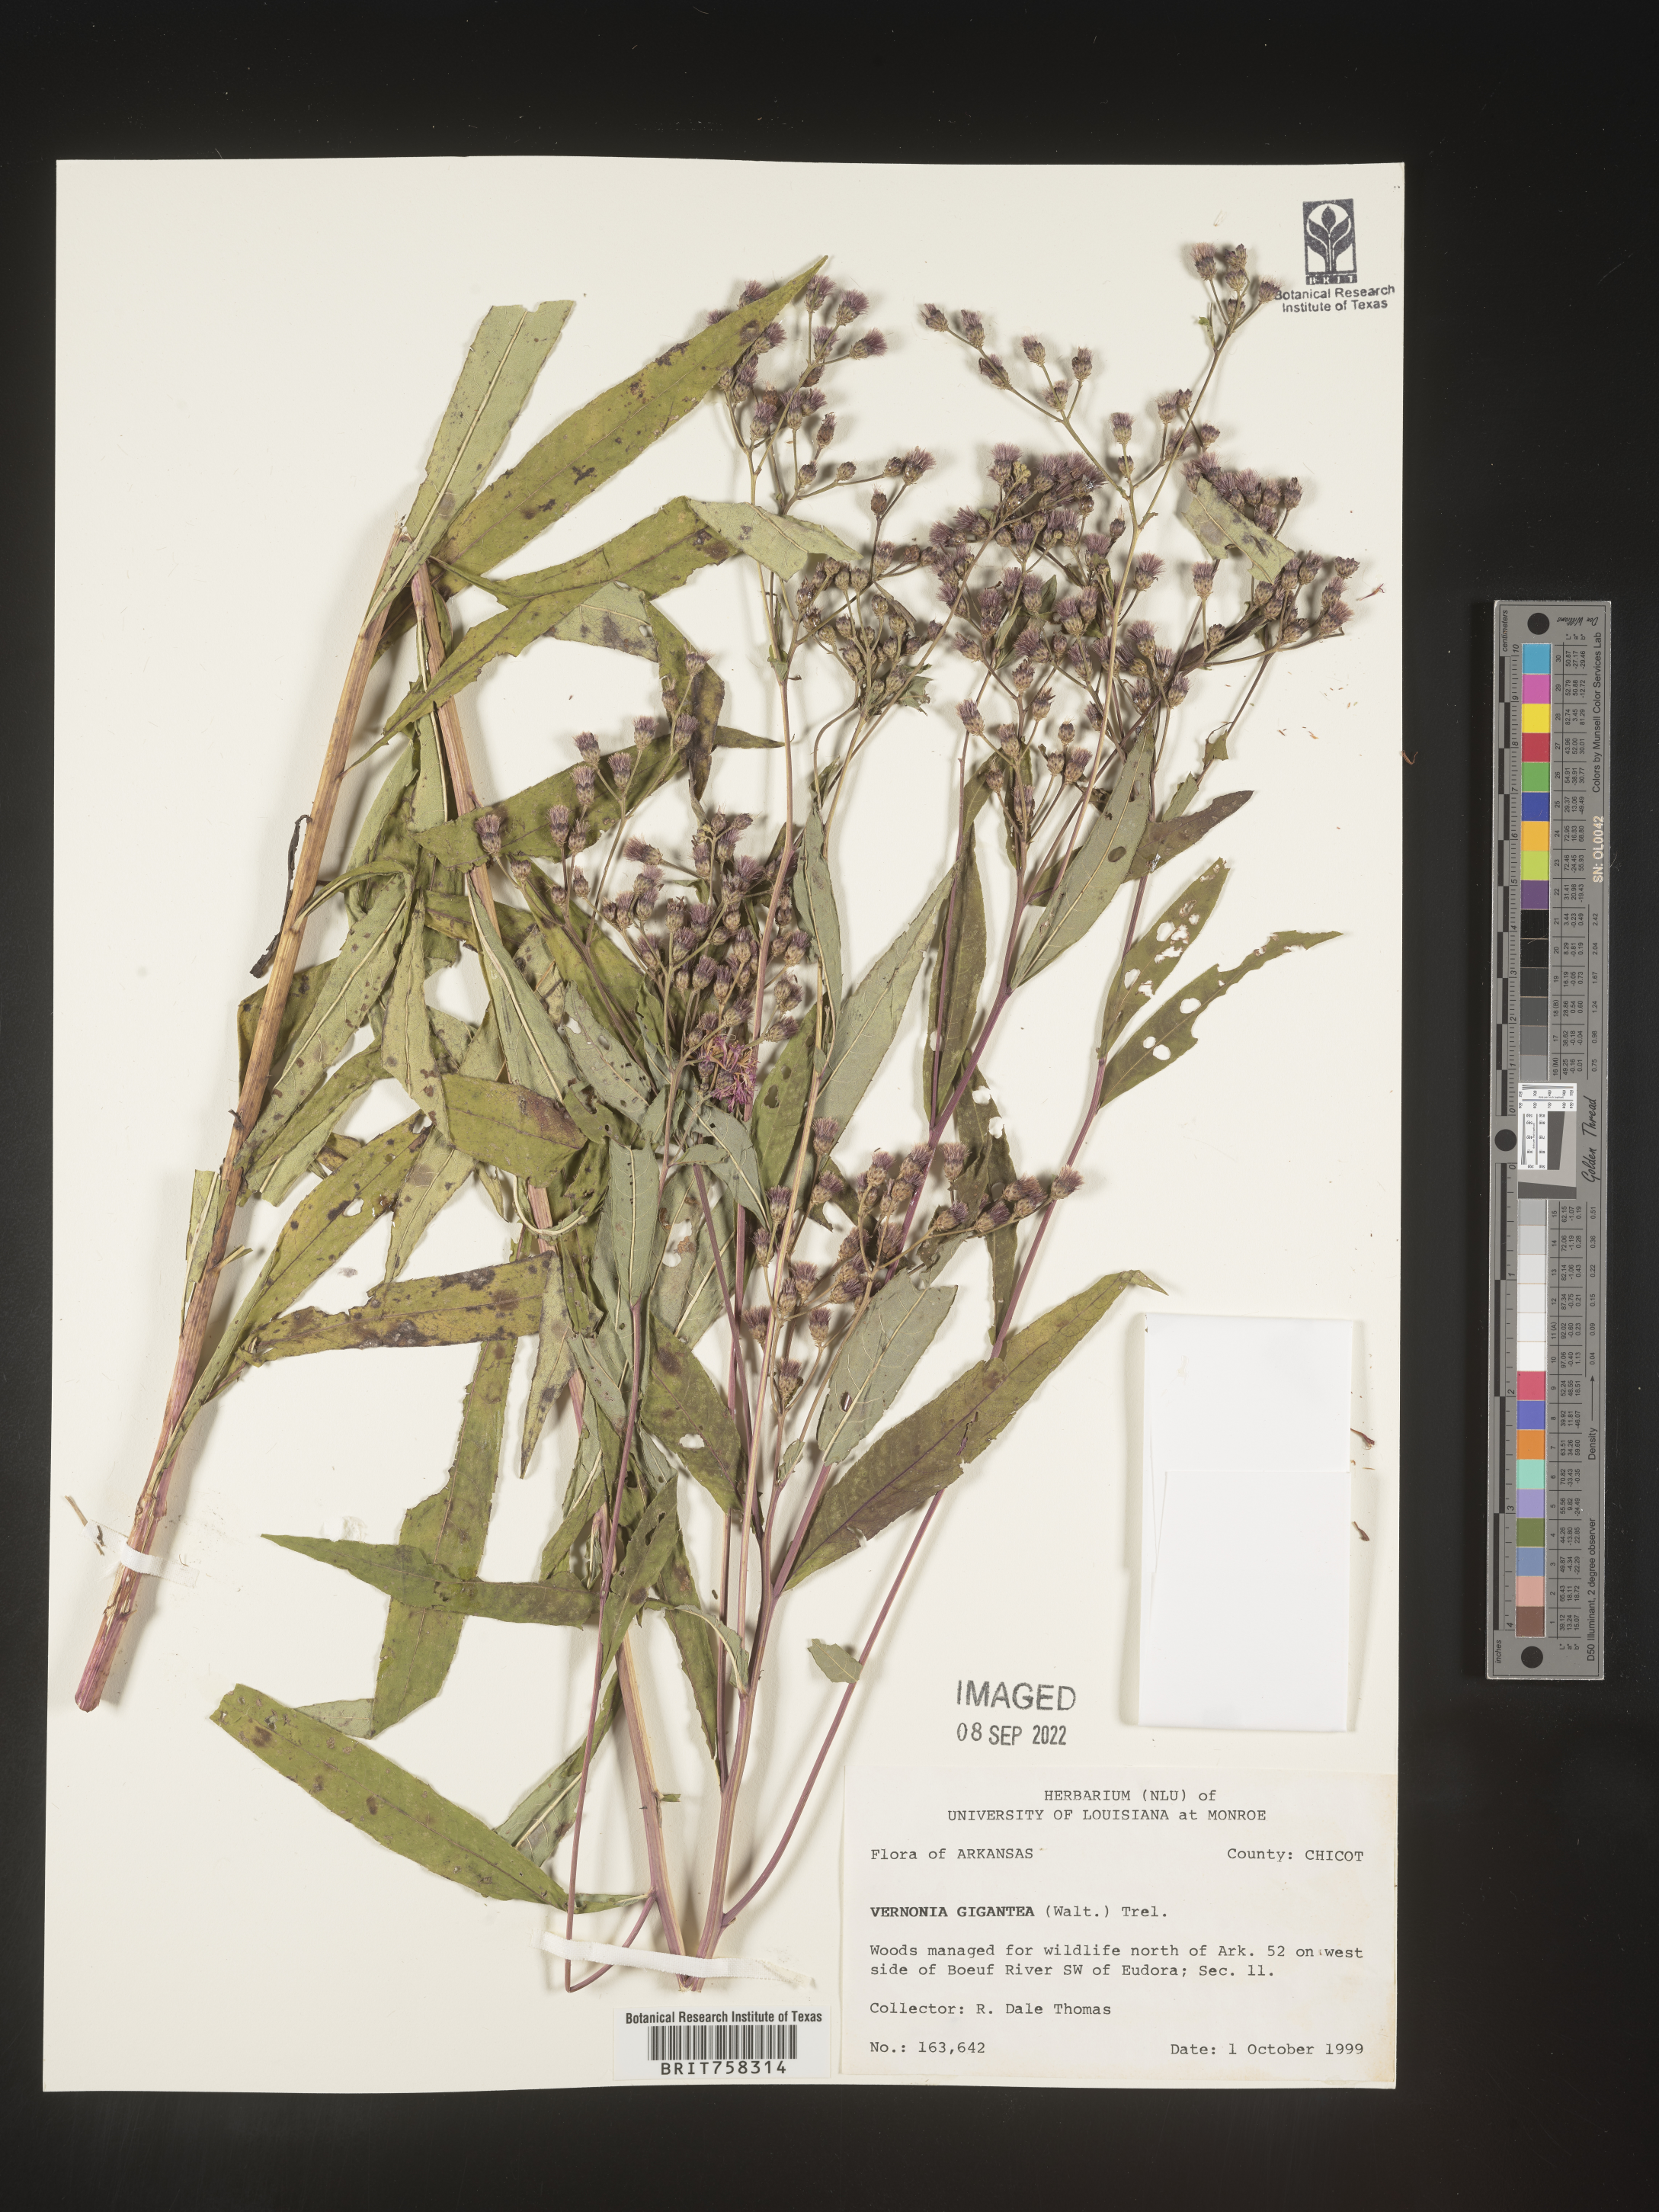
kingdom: Plantae
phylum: Tracheophyta
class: Magnoliopsida
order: Asterales
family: Asteraceae
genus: Vernonia
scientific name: Vernonia gigantea
